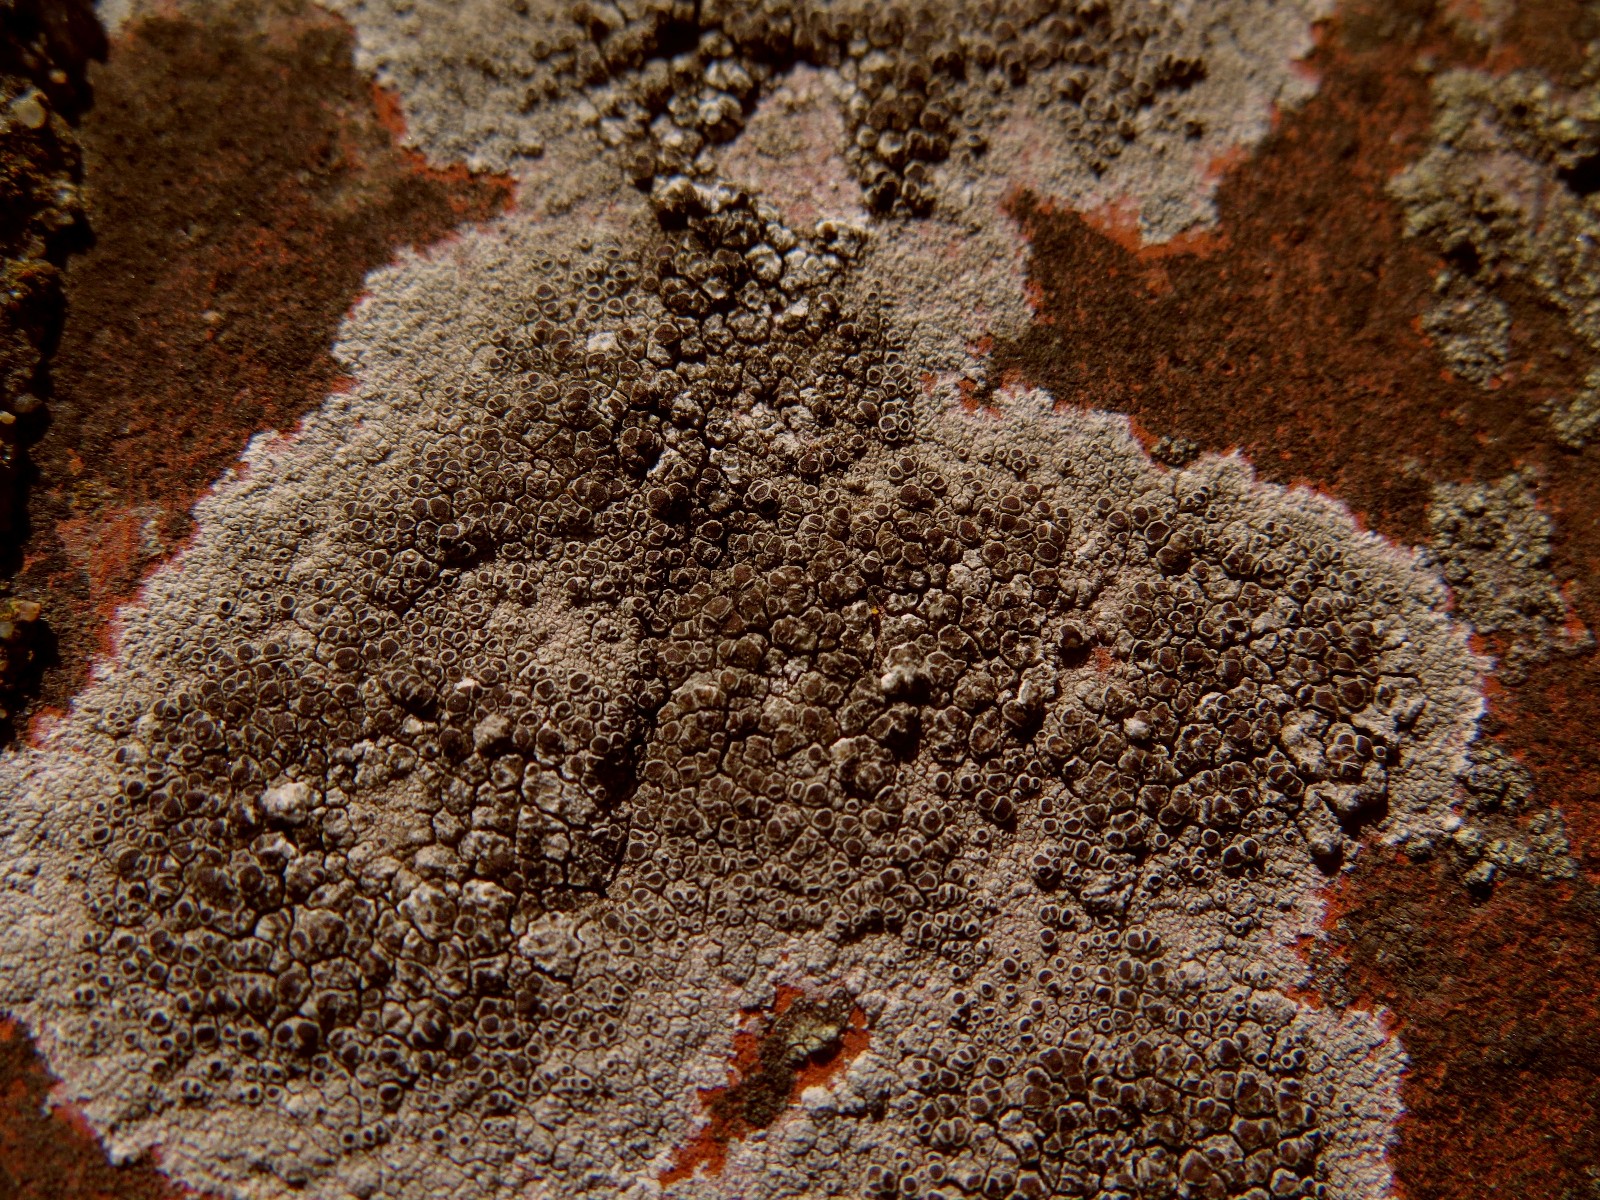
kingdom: Fungi
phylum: Ascomycota
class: Lecanoromycetes
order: Lecanorales
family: Lecanoraceae
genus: Lecanora
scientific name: Lecanora campestris
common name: mur-kantskivelav
